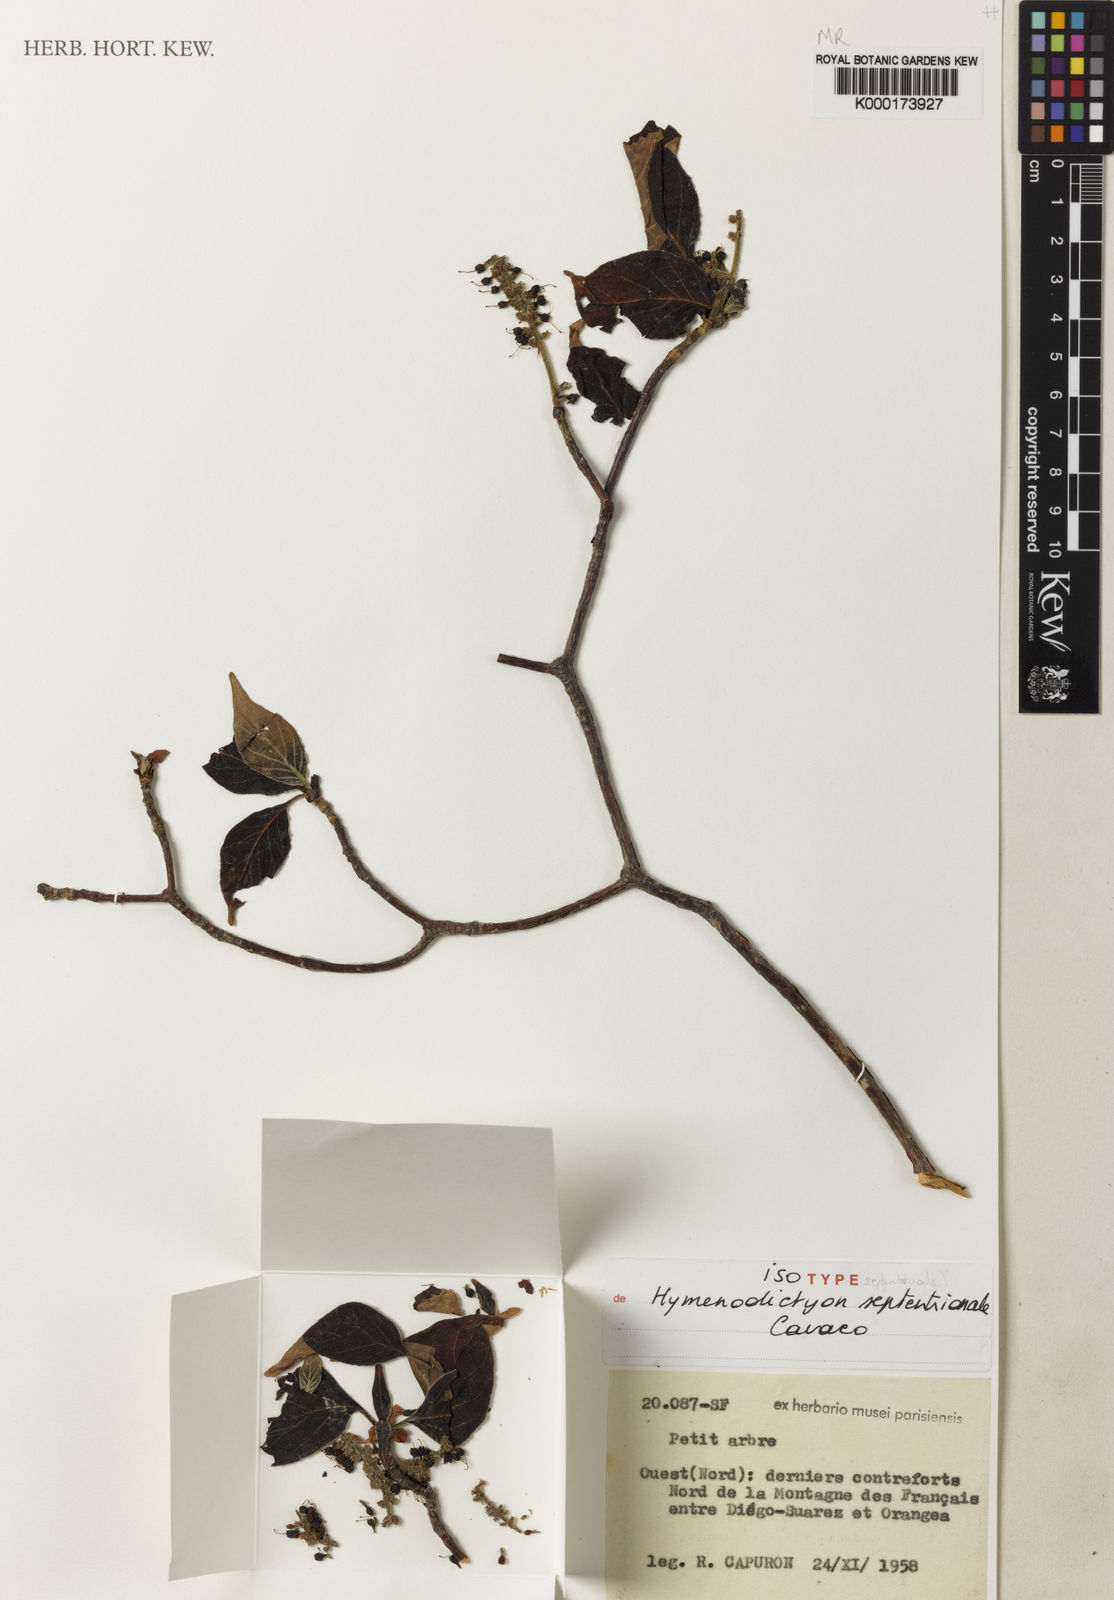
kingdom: Plantae
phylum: Tracheophyta
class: Magnoliopsida
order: Gentianales
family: Rubiaceae
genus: Hymenodictyon
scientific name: Hymenodictyon septentrionale
